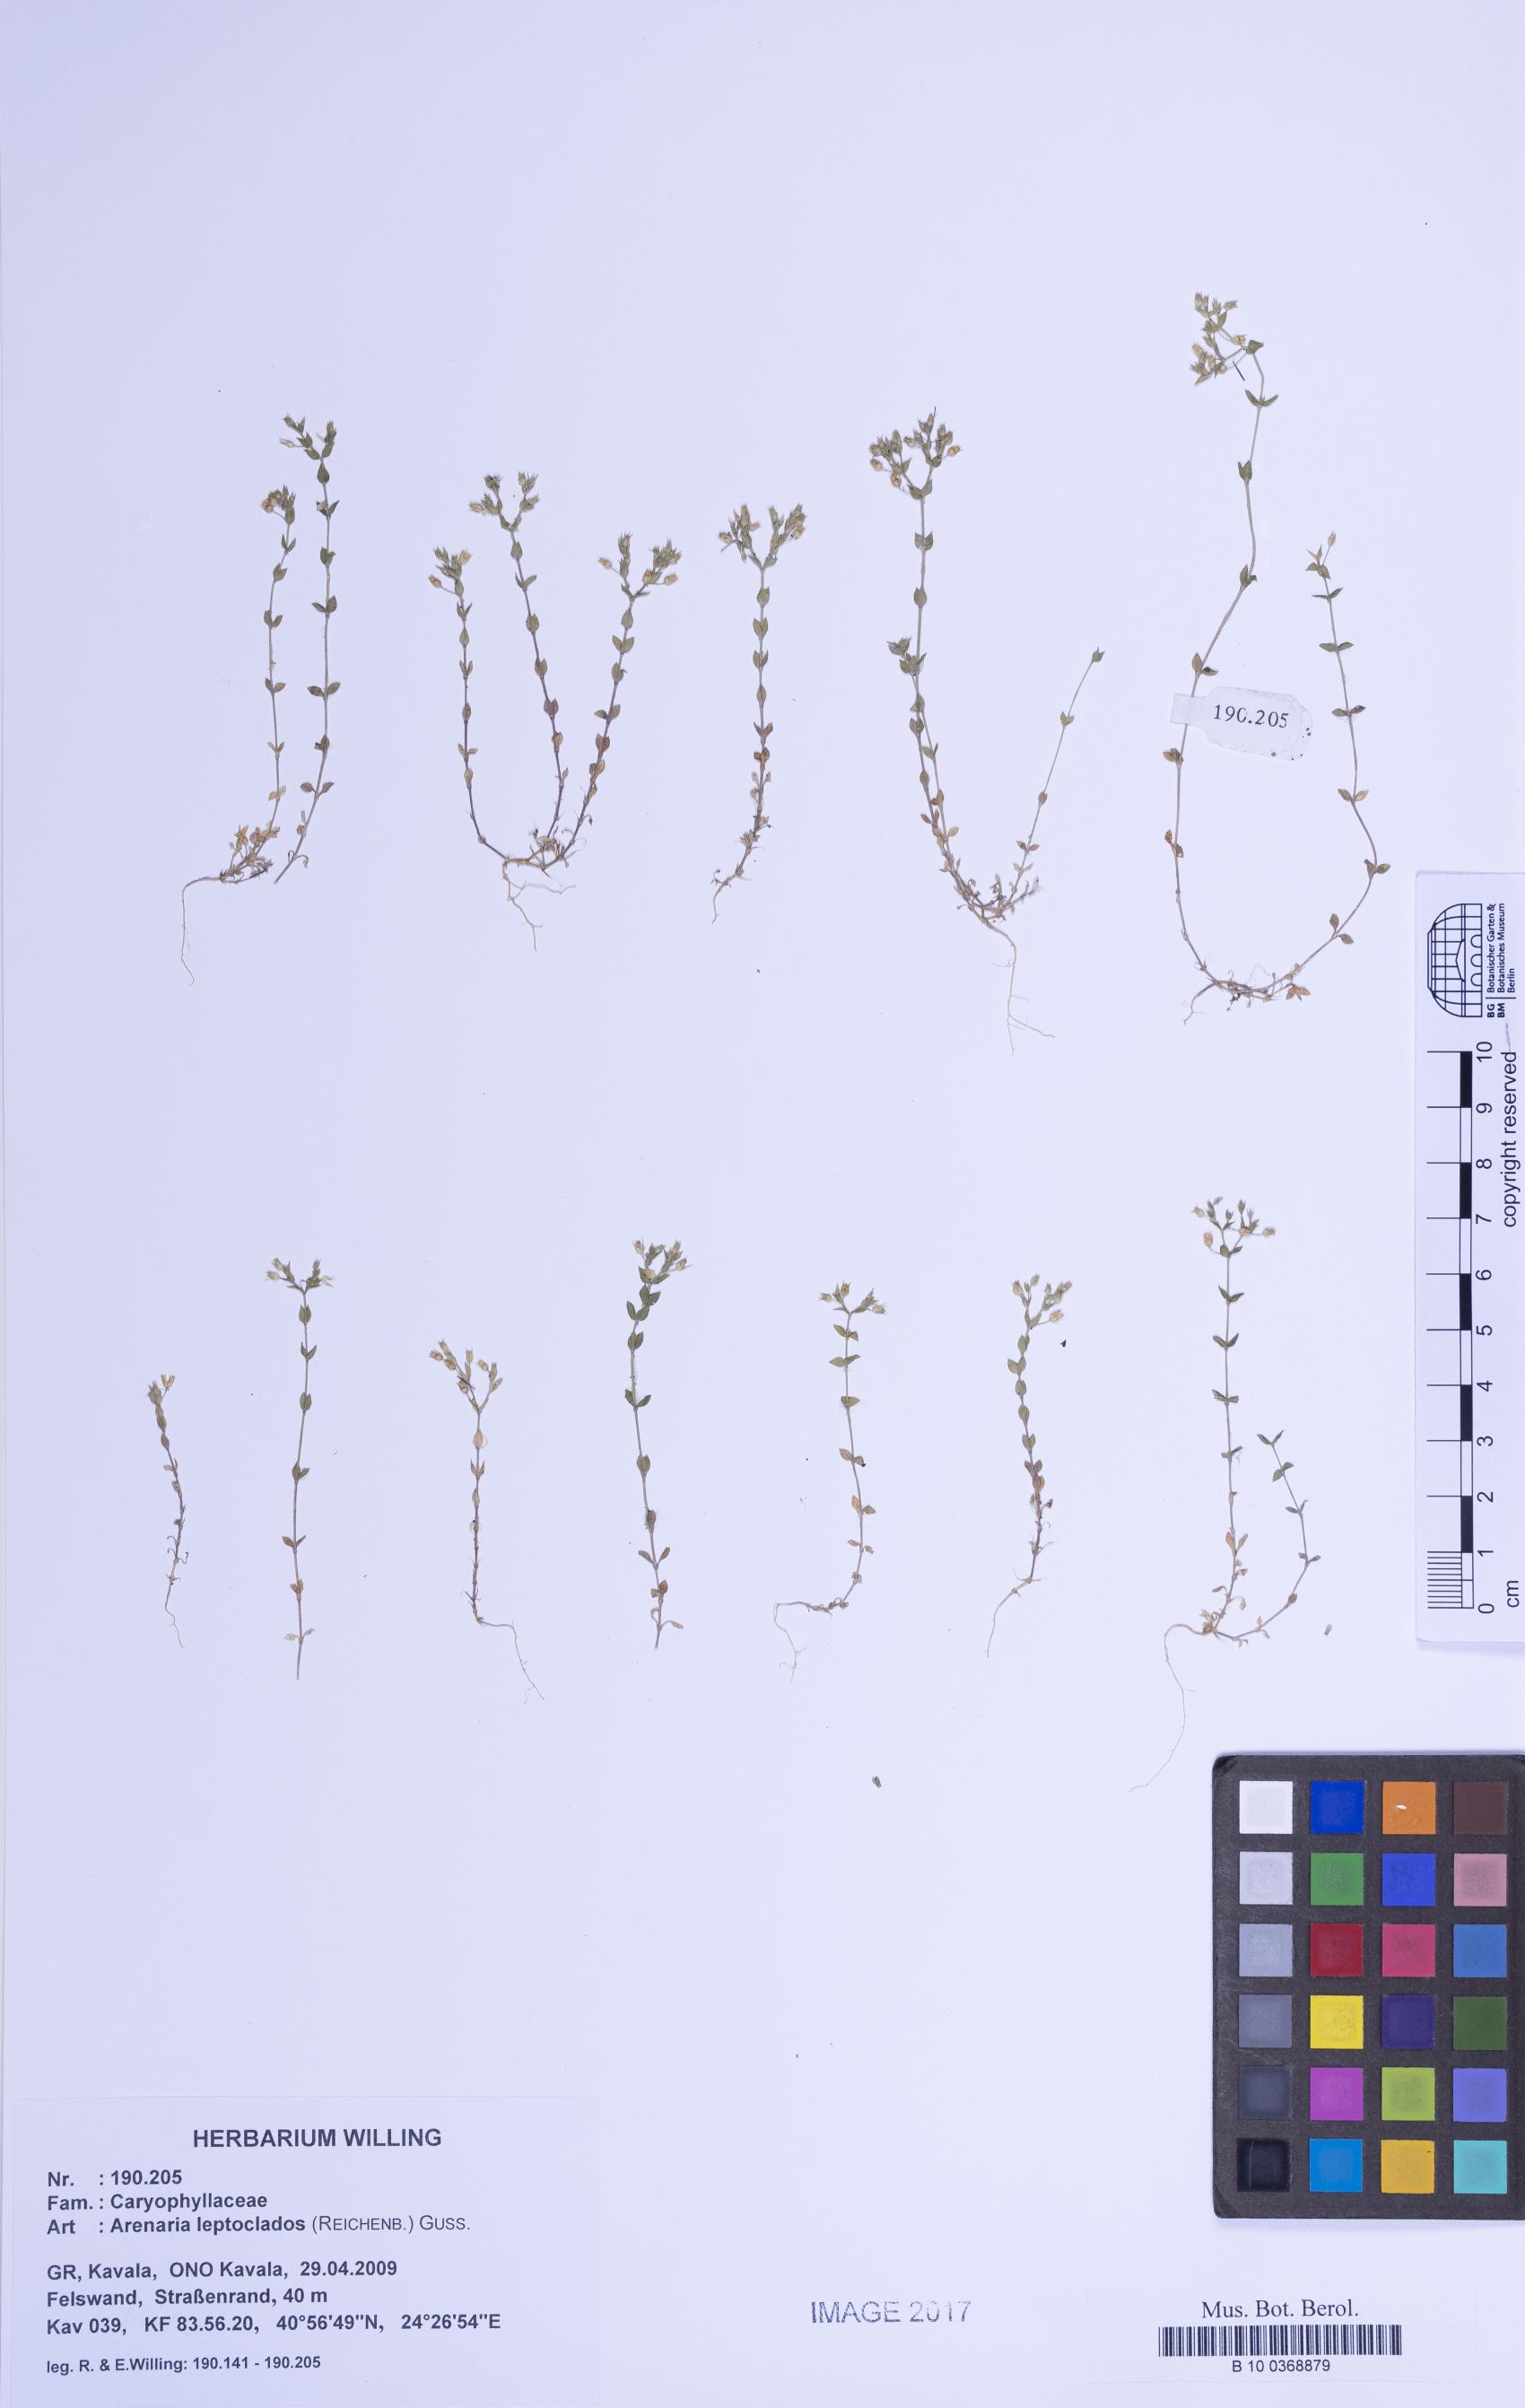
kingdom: Plantae
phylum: Tracheophyta
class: Magnoliopsida
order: Caryophyllales
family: Caryophyllaceae
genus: Arenaria
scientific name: Arenaria leptoclados
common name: Thyme-leaved sandwort
